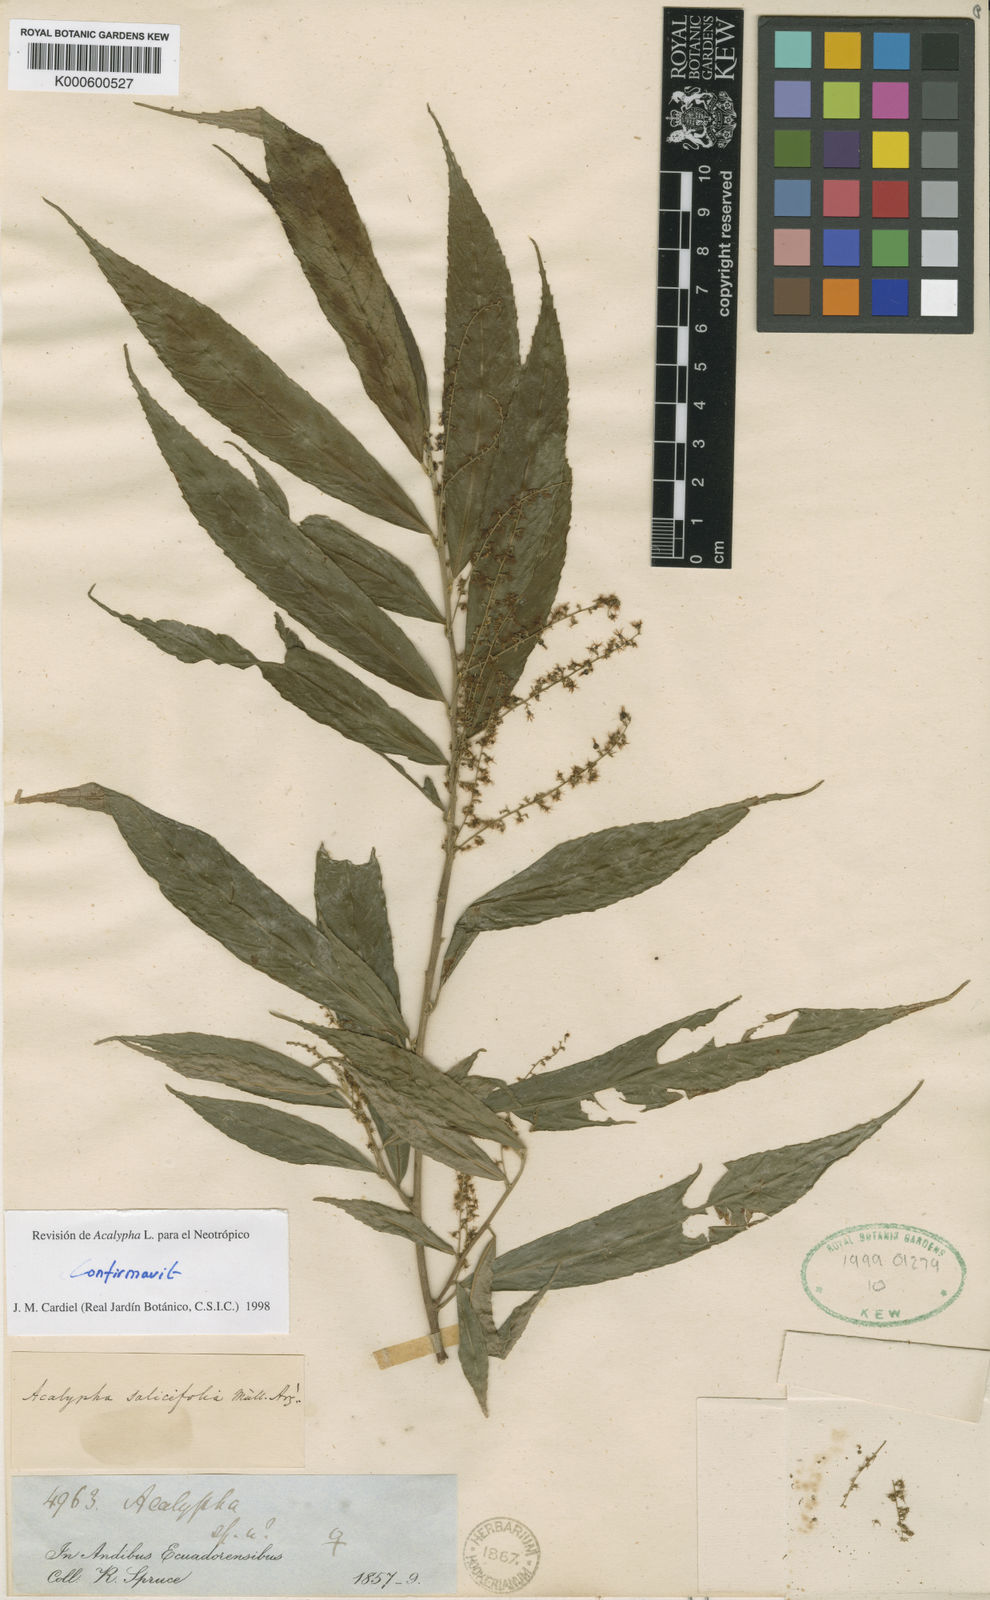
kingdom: Plantae
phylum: Tracheophyta
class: Magnoliopsida
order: Malpighiales
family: Euphorbiaceae
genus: Acalypha
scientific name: Acalypha
